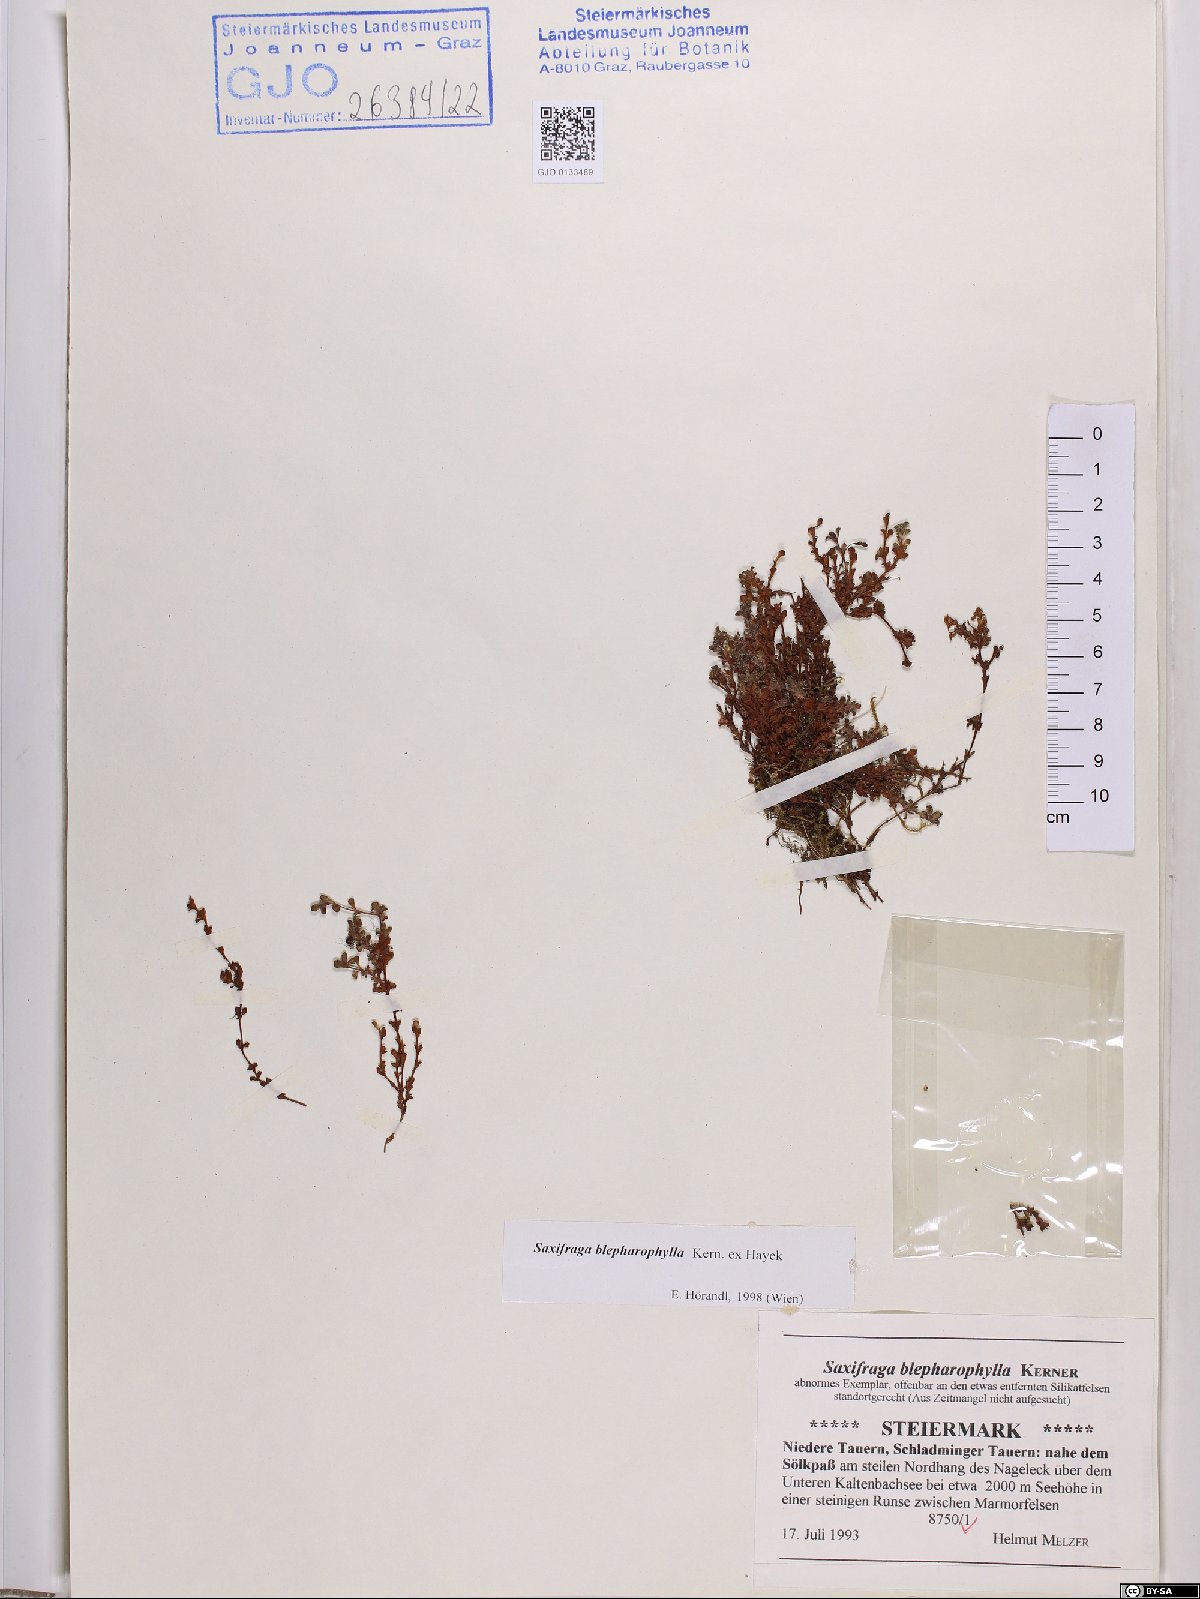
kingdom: Plantae
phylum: Tracheophyta
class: Magnoliopsida
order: Saxifragales
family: Saxifragaceae
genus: Saxifraga
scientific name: Saxifraga oppositifolia
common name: Purple saxifrage
